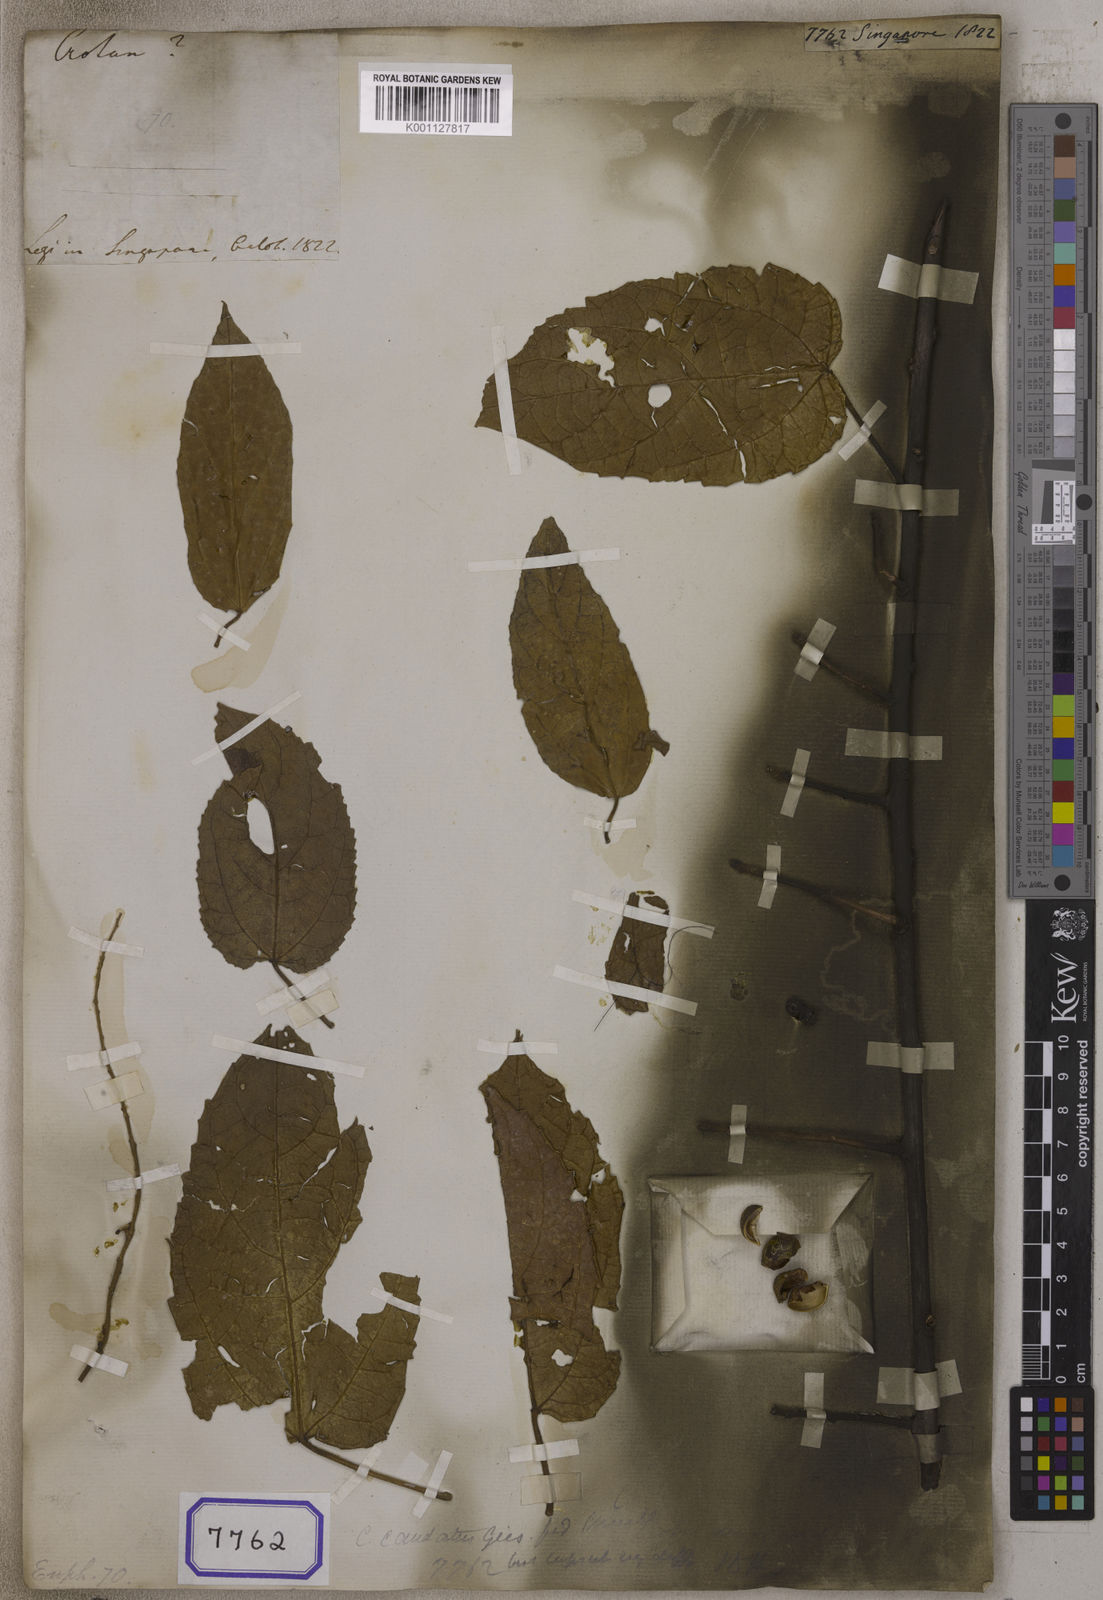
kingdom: Plantae
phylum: Tracheophyta
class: Magnoliopsida
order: Malpighiales
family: Euphorbiaceae
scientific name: Euphorbiaceae
